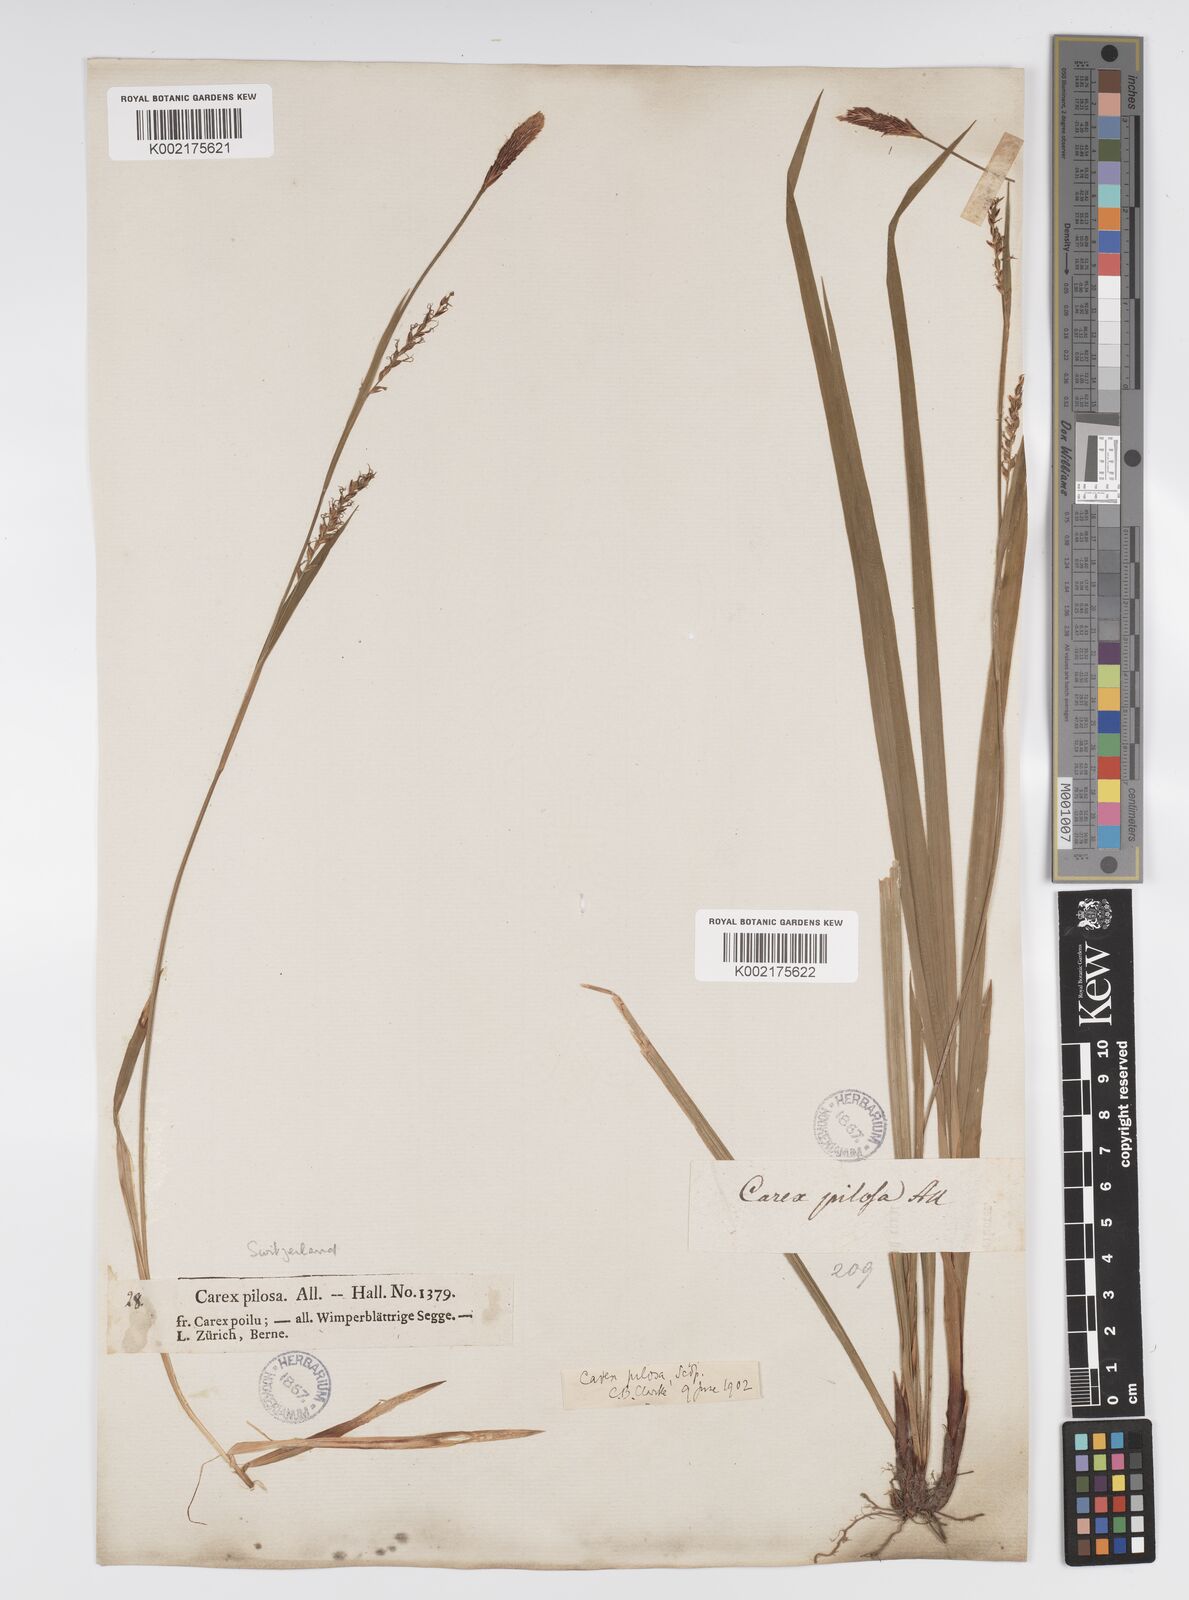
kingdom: Plantae
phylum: Tracheophyta
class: Liliopsida
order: Poales
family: Cyperaceae
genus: Carex
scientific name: Carex pilosa
